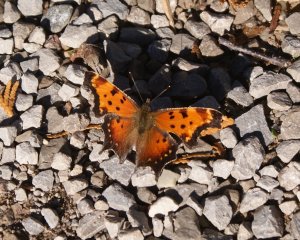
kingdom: Animalia
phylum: Arthropoda
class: Insecta
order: Lepidoptera
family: Nymphalidae
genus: Polygonia
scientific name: Polygonia progne
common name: Gray Comma
